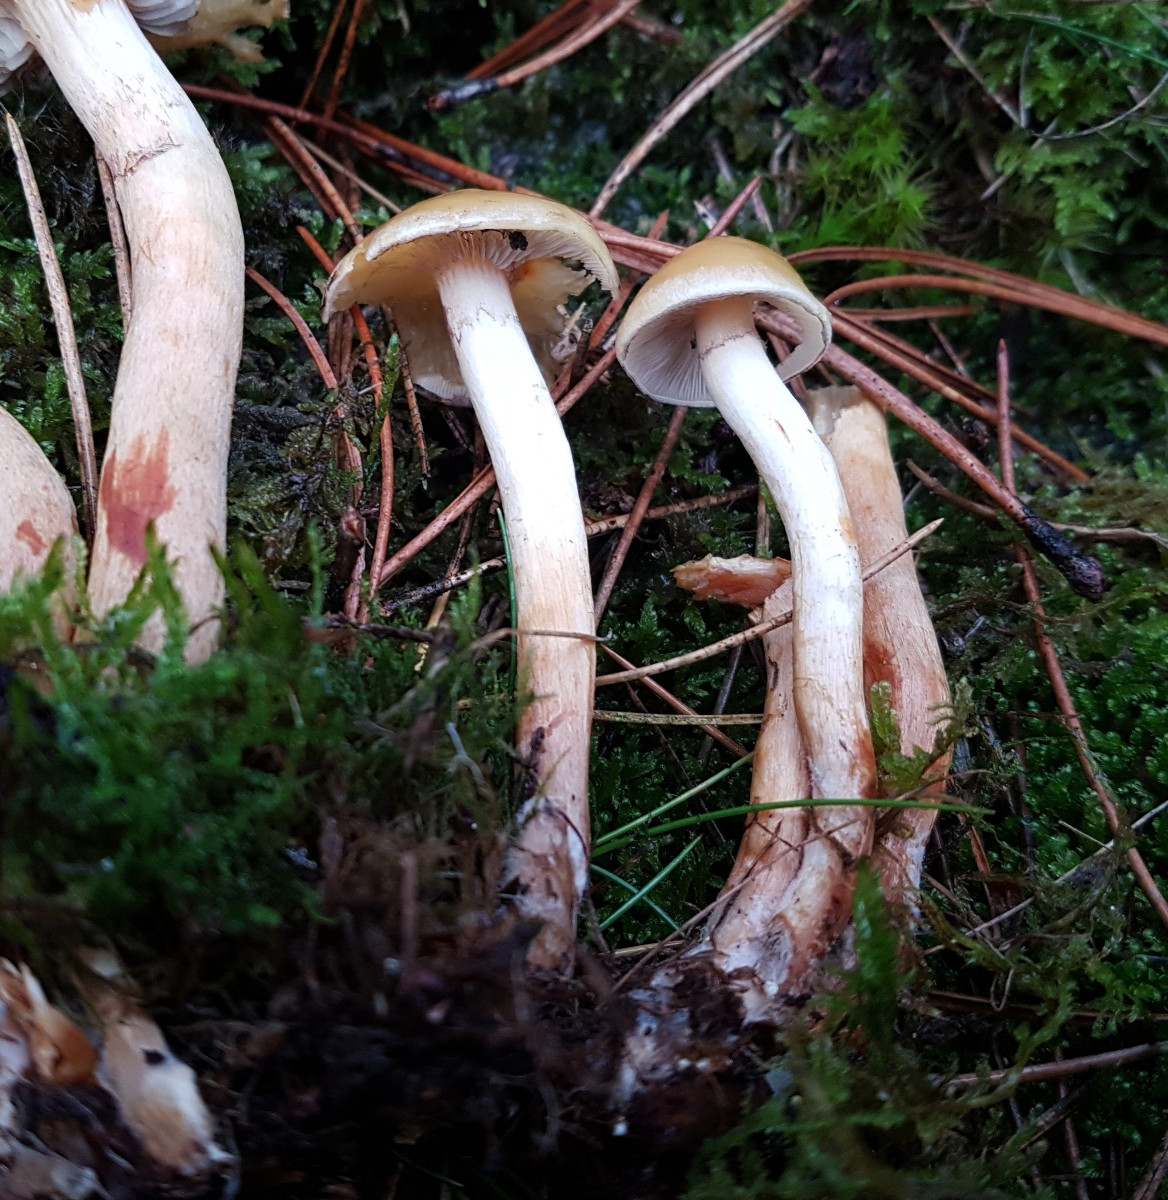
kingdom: Fungi
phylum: Basidiomycota
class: Agaricomycetes
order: Agaricales
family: Strophariaceae
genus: Hypholoma
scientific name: Hypholoma capnoides
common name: gran-svovlhat
